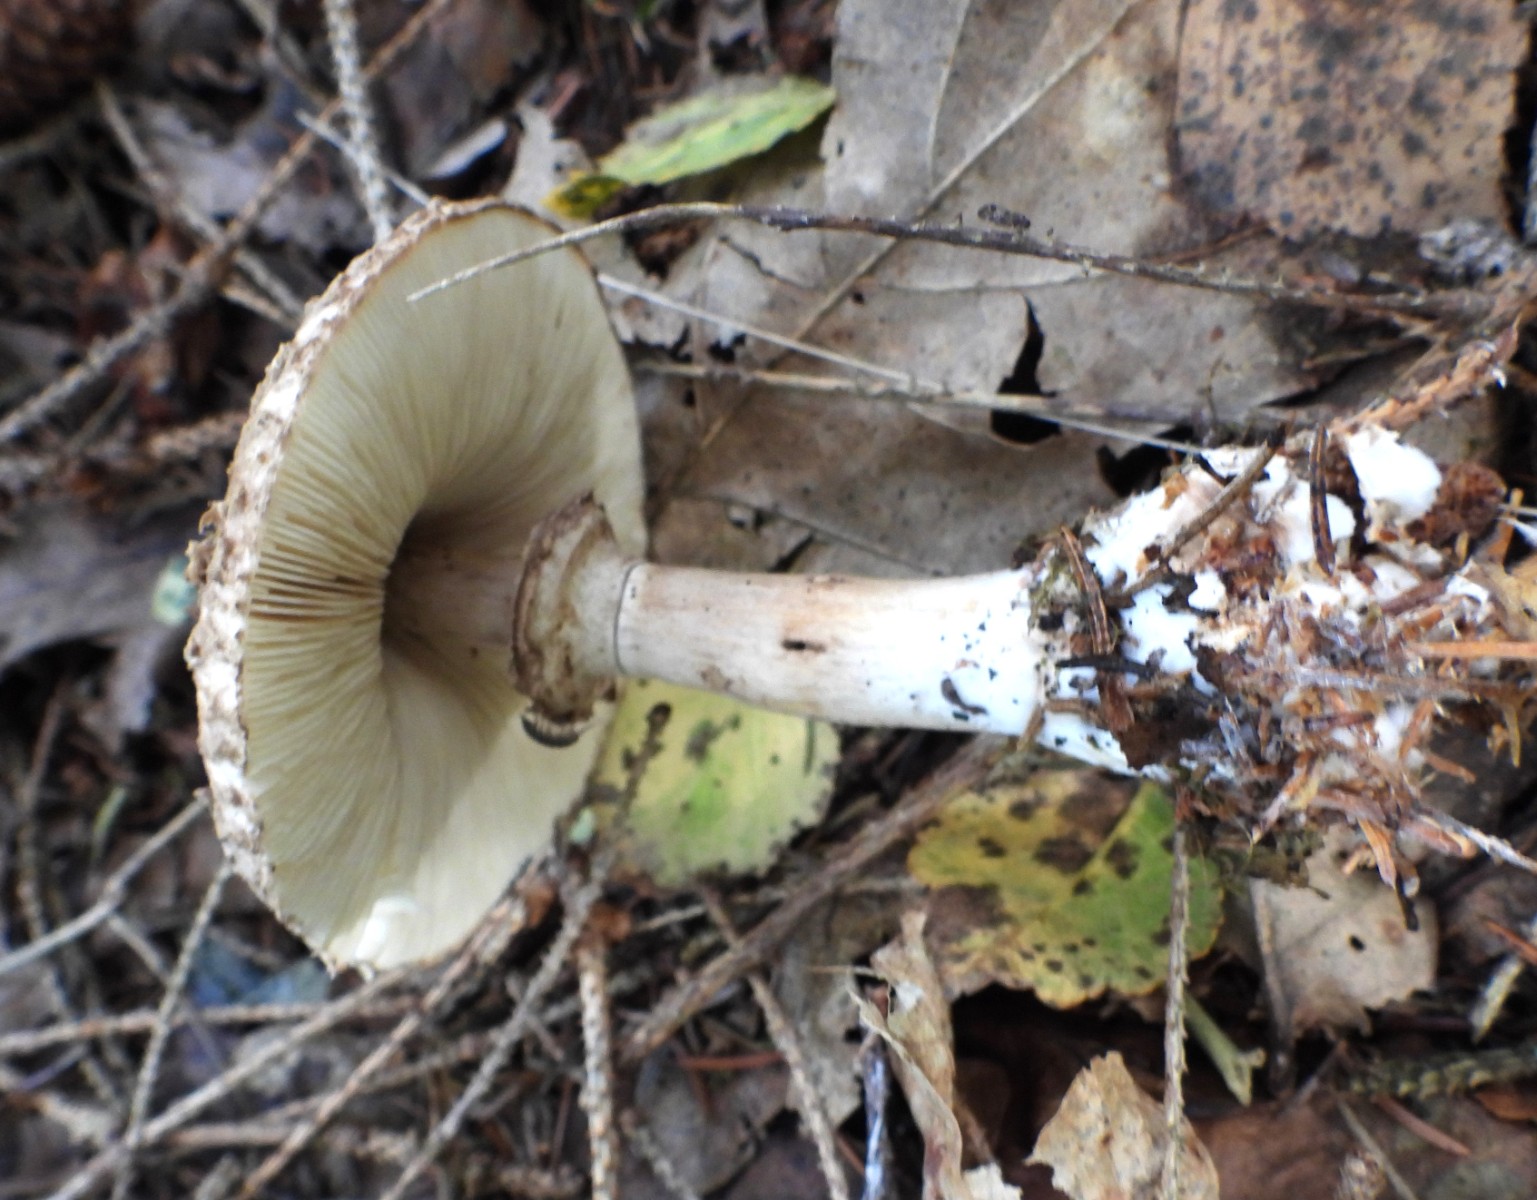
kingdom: Fungi
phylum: Basidiomycota
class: Agaricomycetes
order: Agaricales
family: Agaricaceae
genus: Chlorophyllum
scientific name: Chlorophyllum olivieri
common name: almindelig rabarberhat
